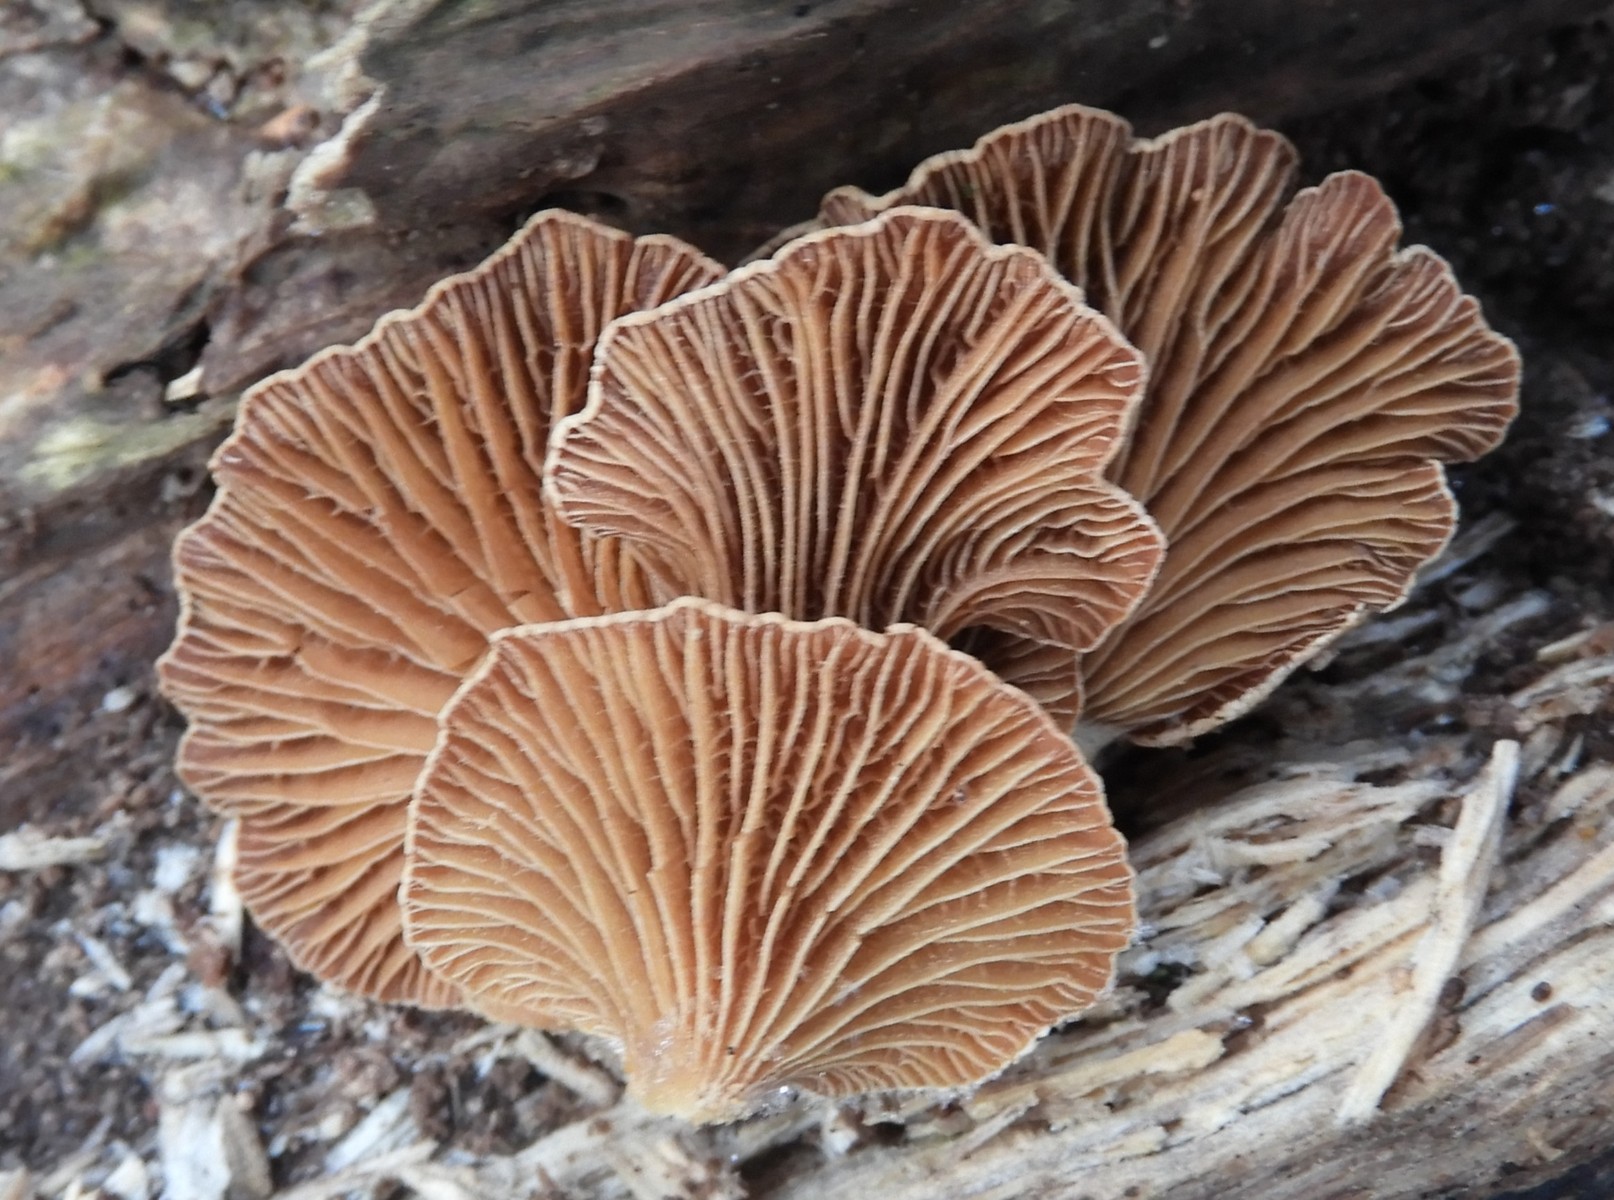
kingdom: Fungi
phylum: Basidiomycota
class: Agaricomycetes
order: Agaricales
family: Mycenaceae
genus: Panellus
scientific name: Panellus stipticus
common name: kliddet epaulethat
